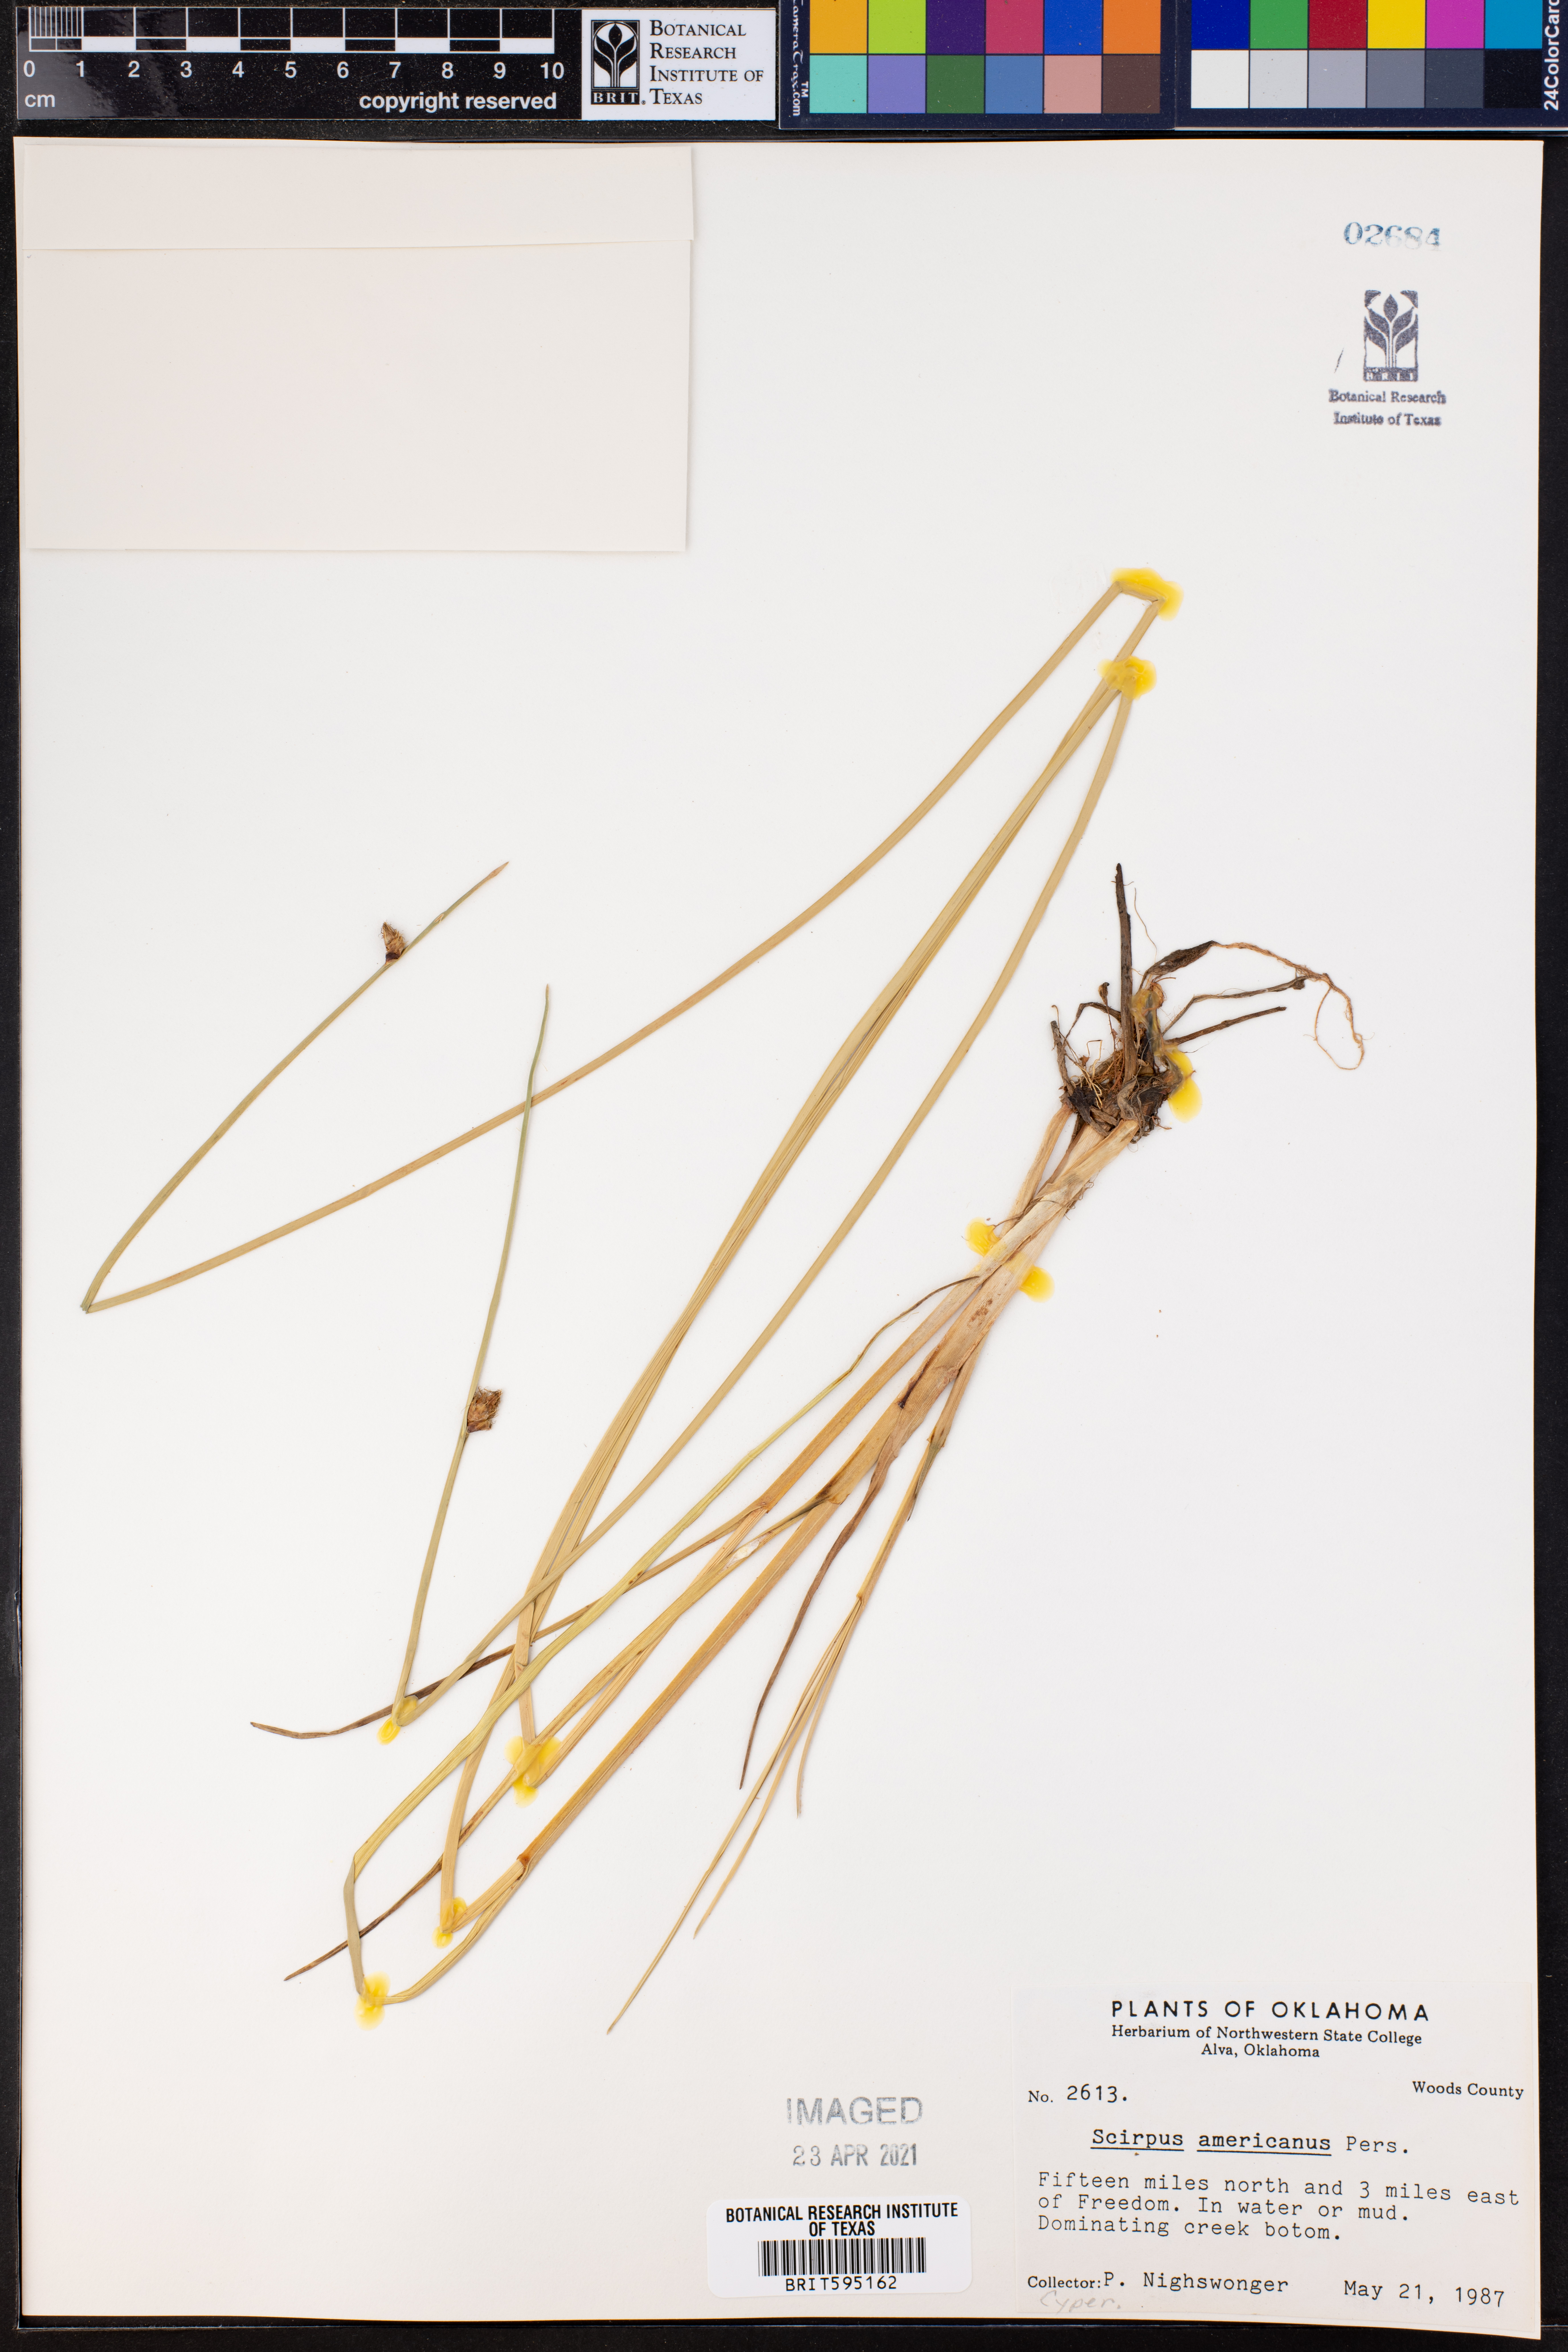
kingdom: Plantae
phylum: Tracheophyta
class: Liliopsida
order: Poales
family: Cyperaceae
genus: Schoenoplectus
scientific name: Schoenoplectus americanus
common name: American three-square bulrush
